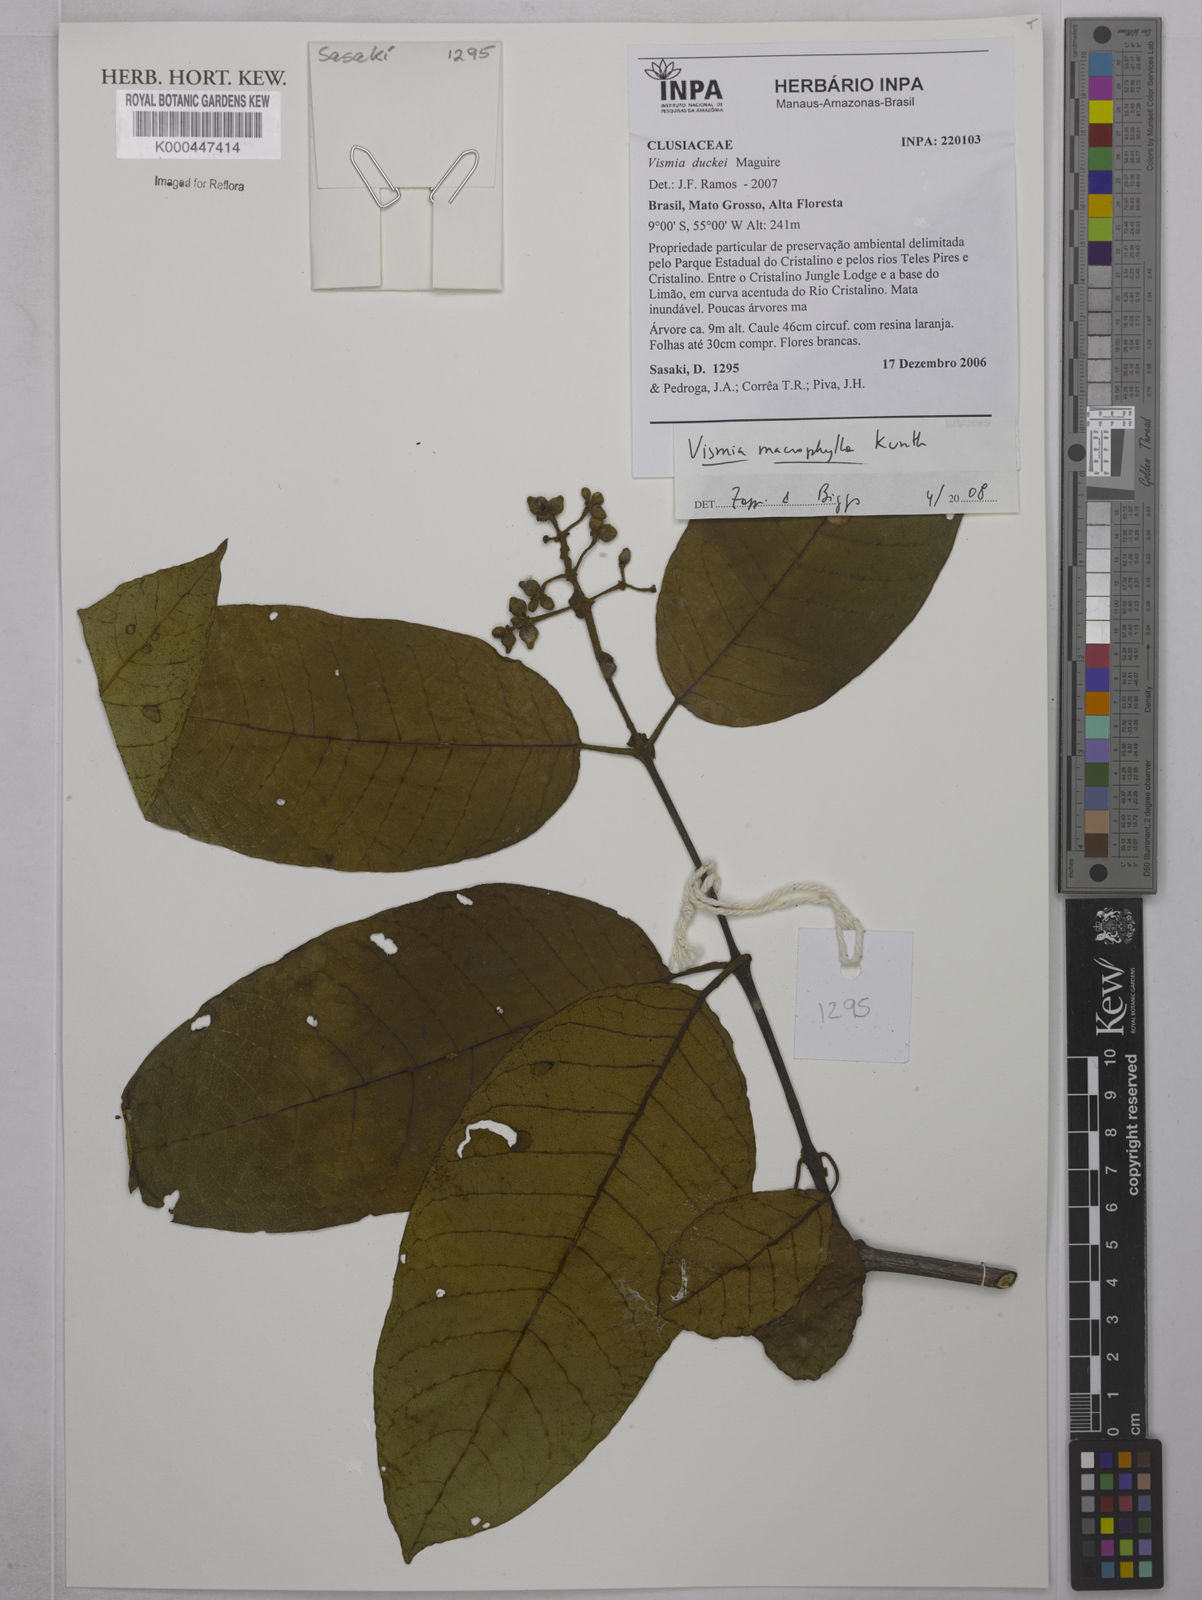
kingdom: Plantae
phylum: Tracheophyta
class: Magnoliopsida
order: Malpighiales
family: Hypericaceae
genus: Vismia
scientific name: Vismia macrophylla
